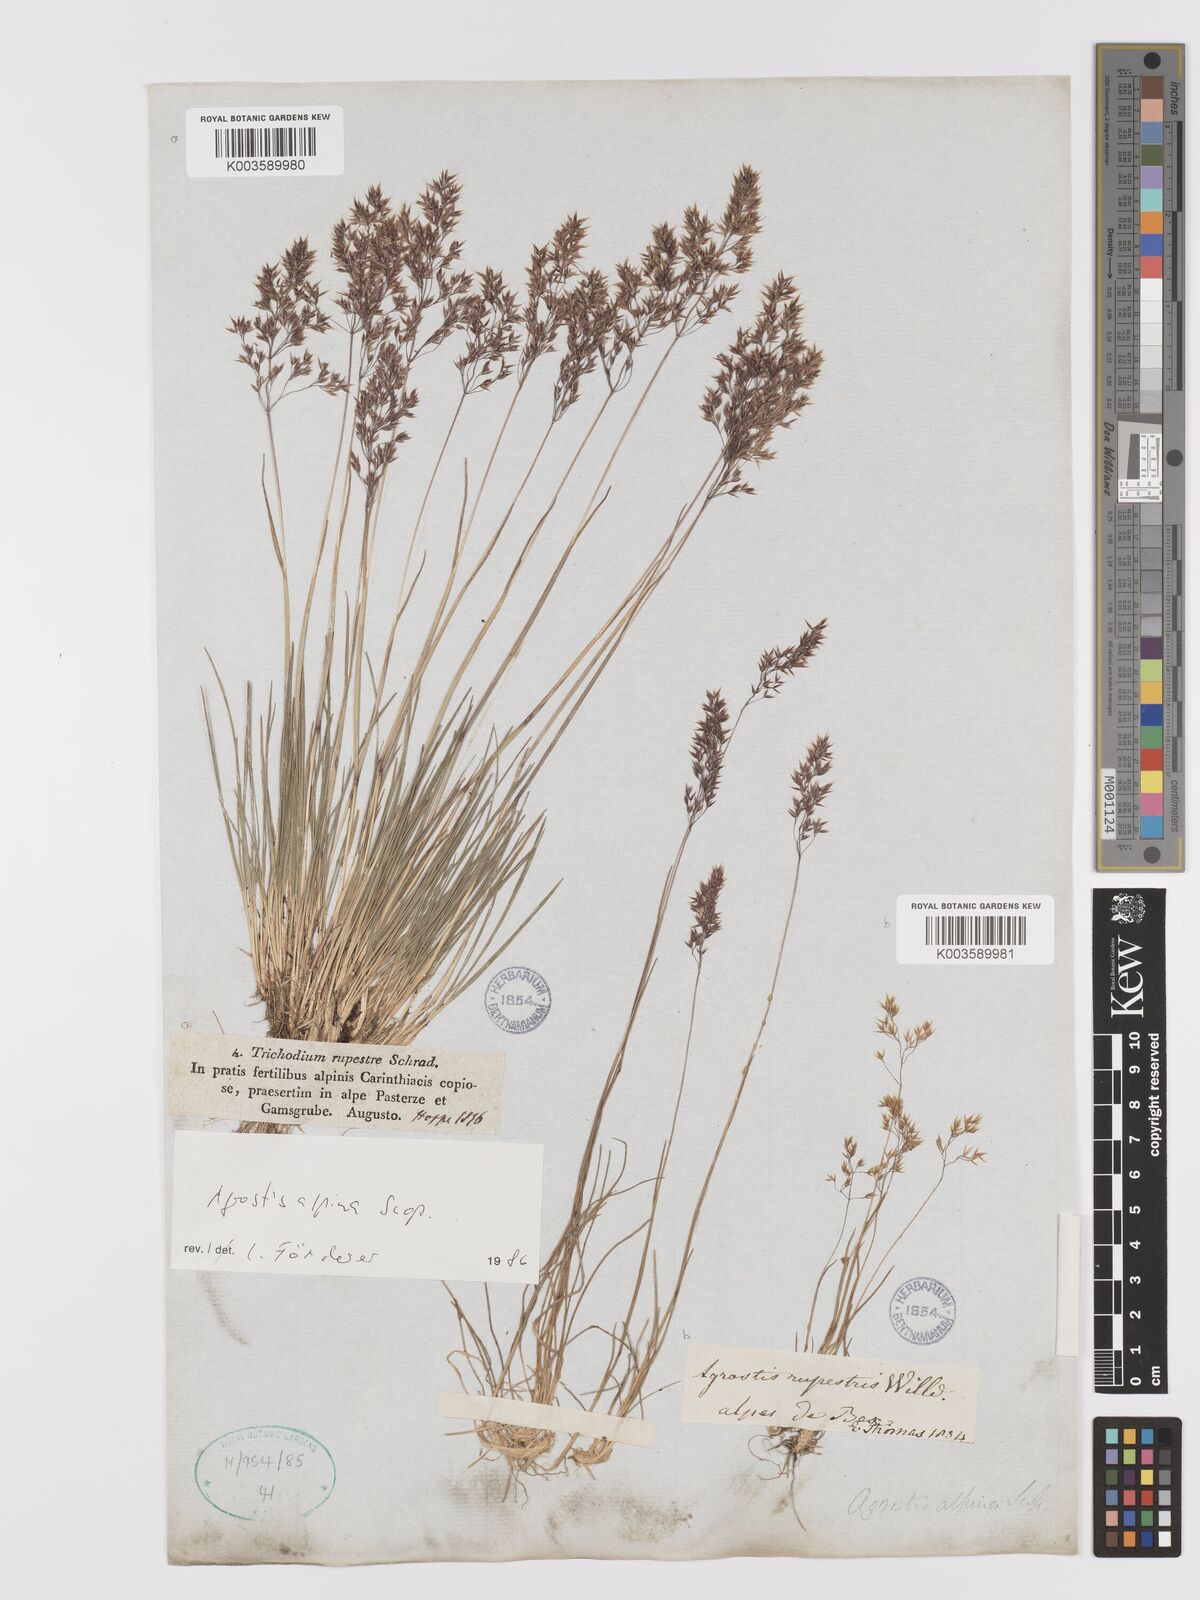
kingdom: Plantae
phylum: Tracheophyta
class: Liliopsida
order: Poales
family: Poaceae
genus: Alpagrostis
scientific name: Alpagrostis alpina
